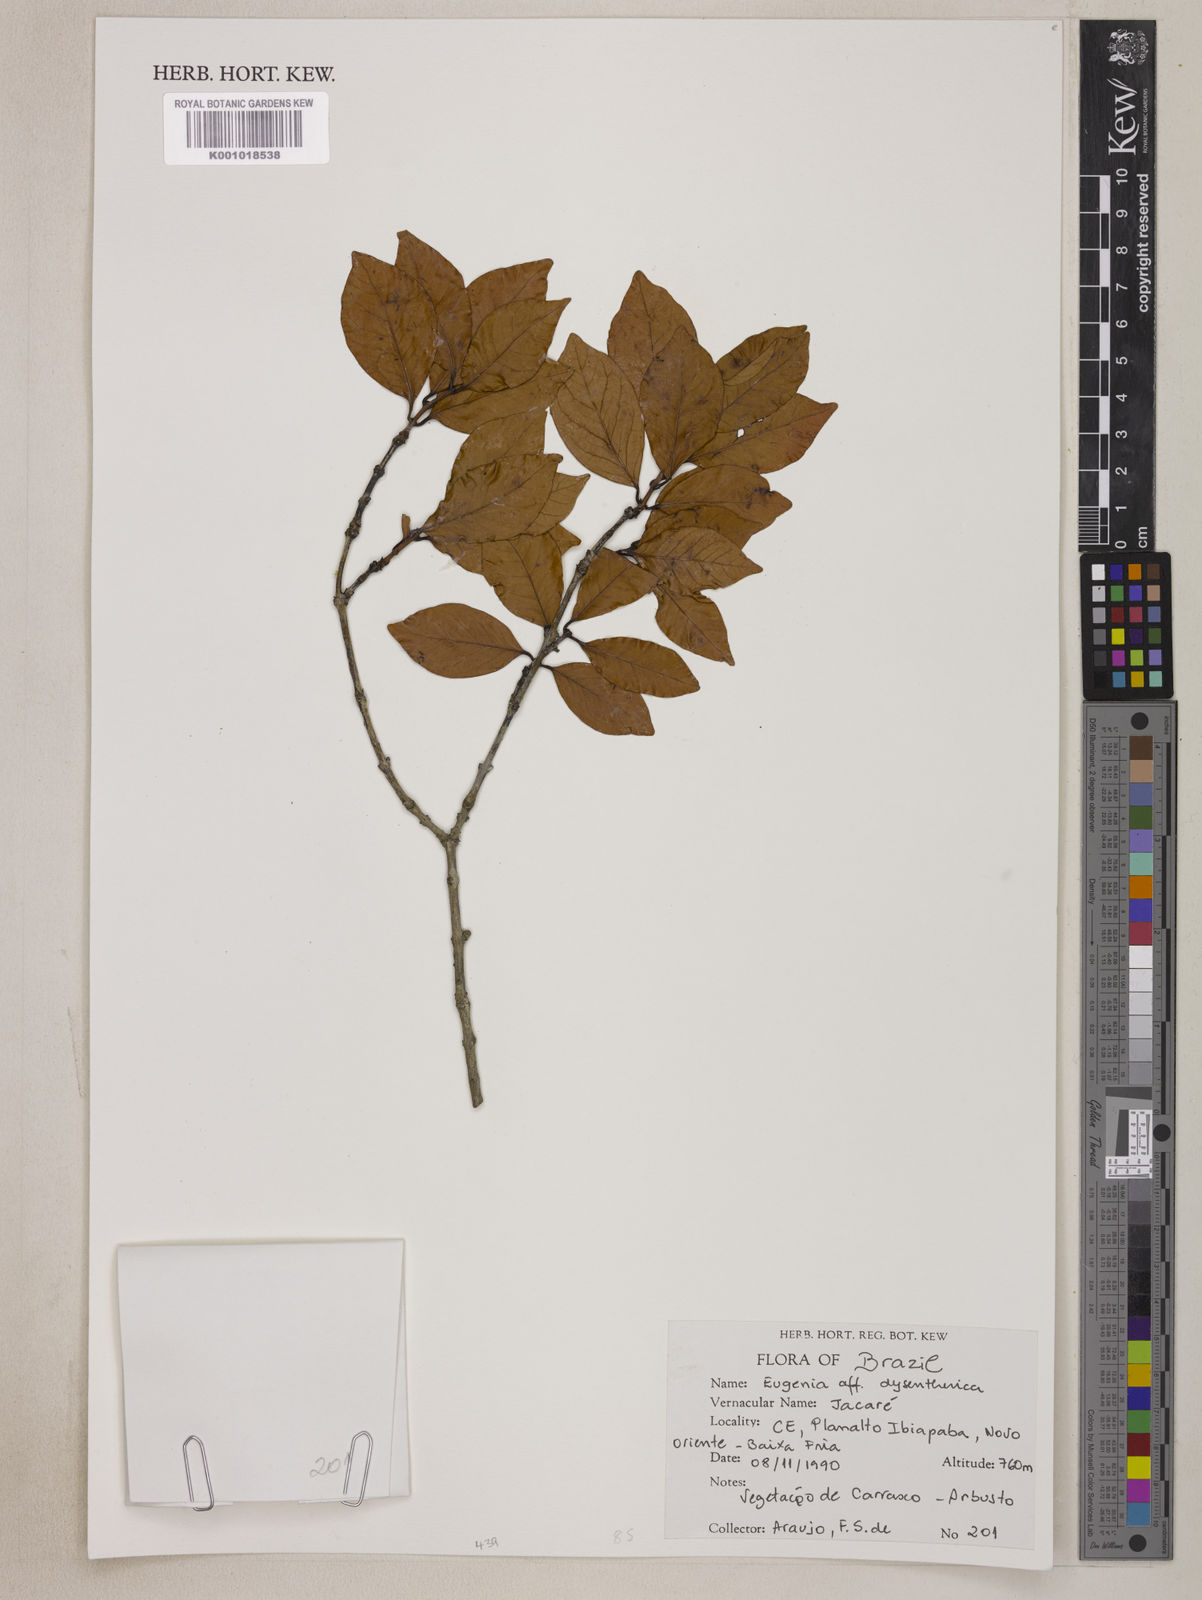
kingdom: Plantae
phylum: Tracheophyta
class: Magnoliopsida
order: Myrtales
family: Myrtaceae
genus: Eugenia
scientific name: Eugenia dysenterica
